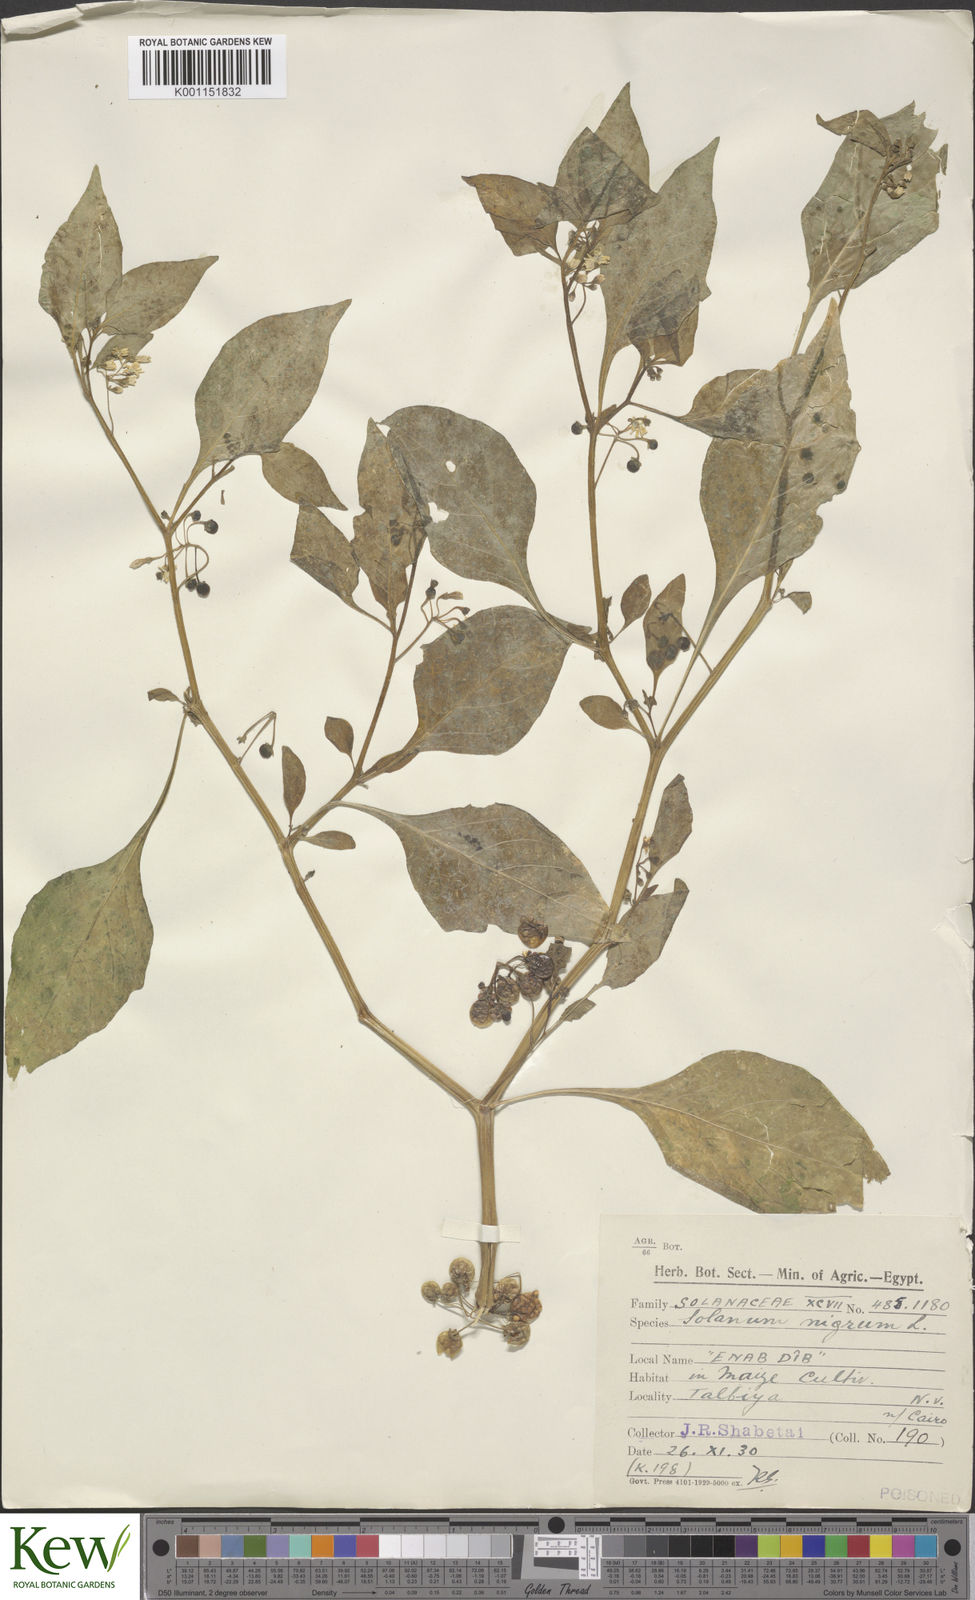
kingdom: Plantae
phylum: Tracheophyta
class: Magnoliopsida
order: Solanales
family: Solanaceae
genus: Solanum
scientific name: Solanum nigrum
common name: Black nightshade
